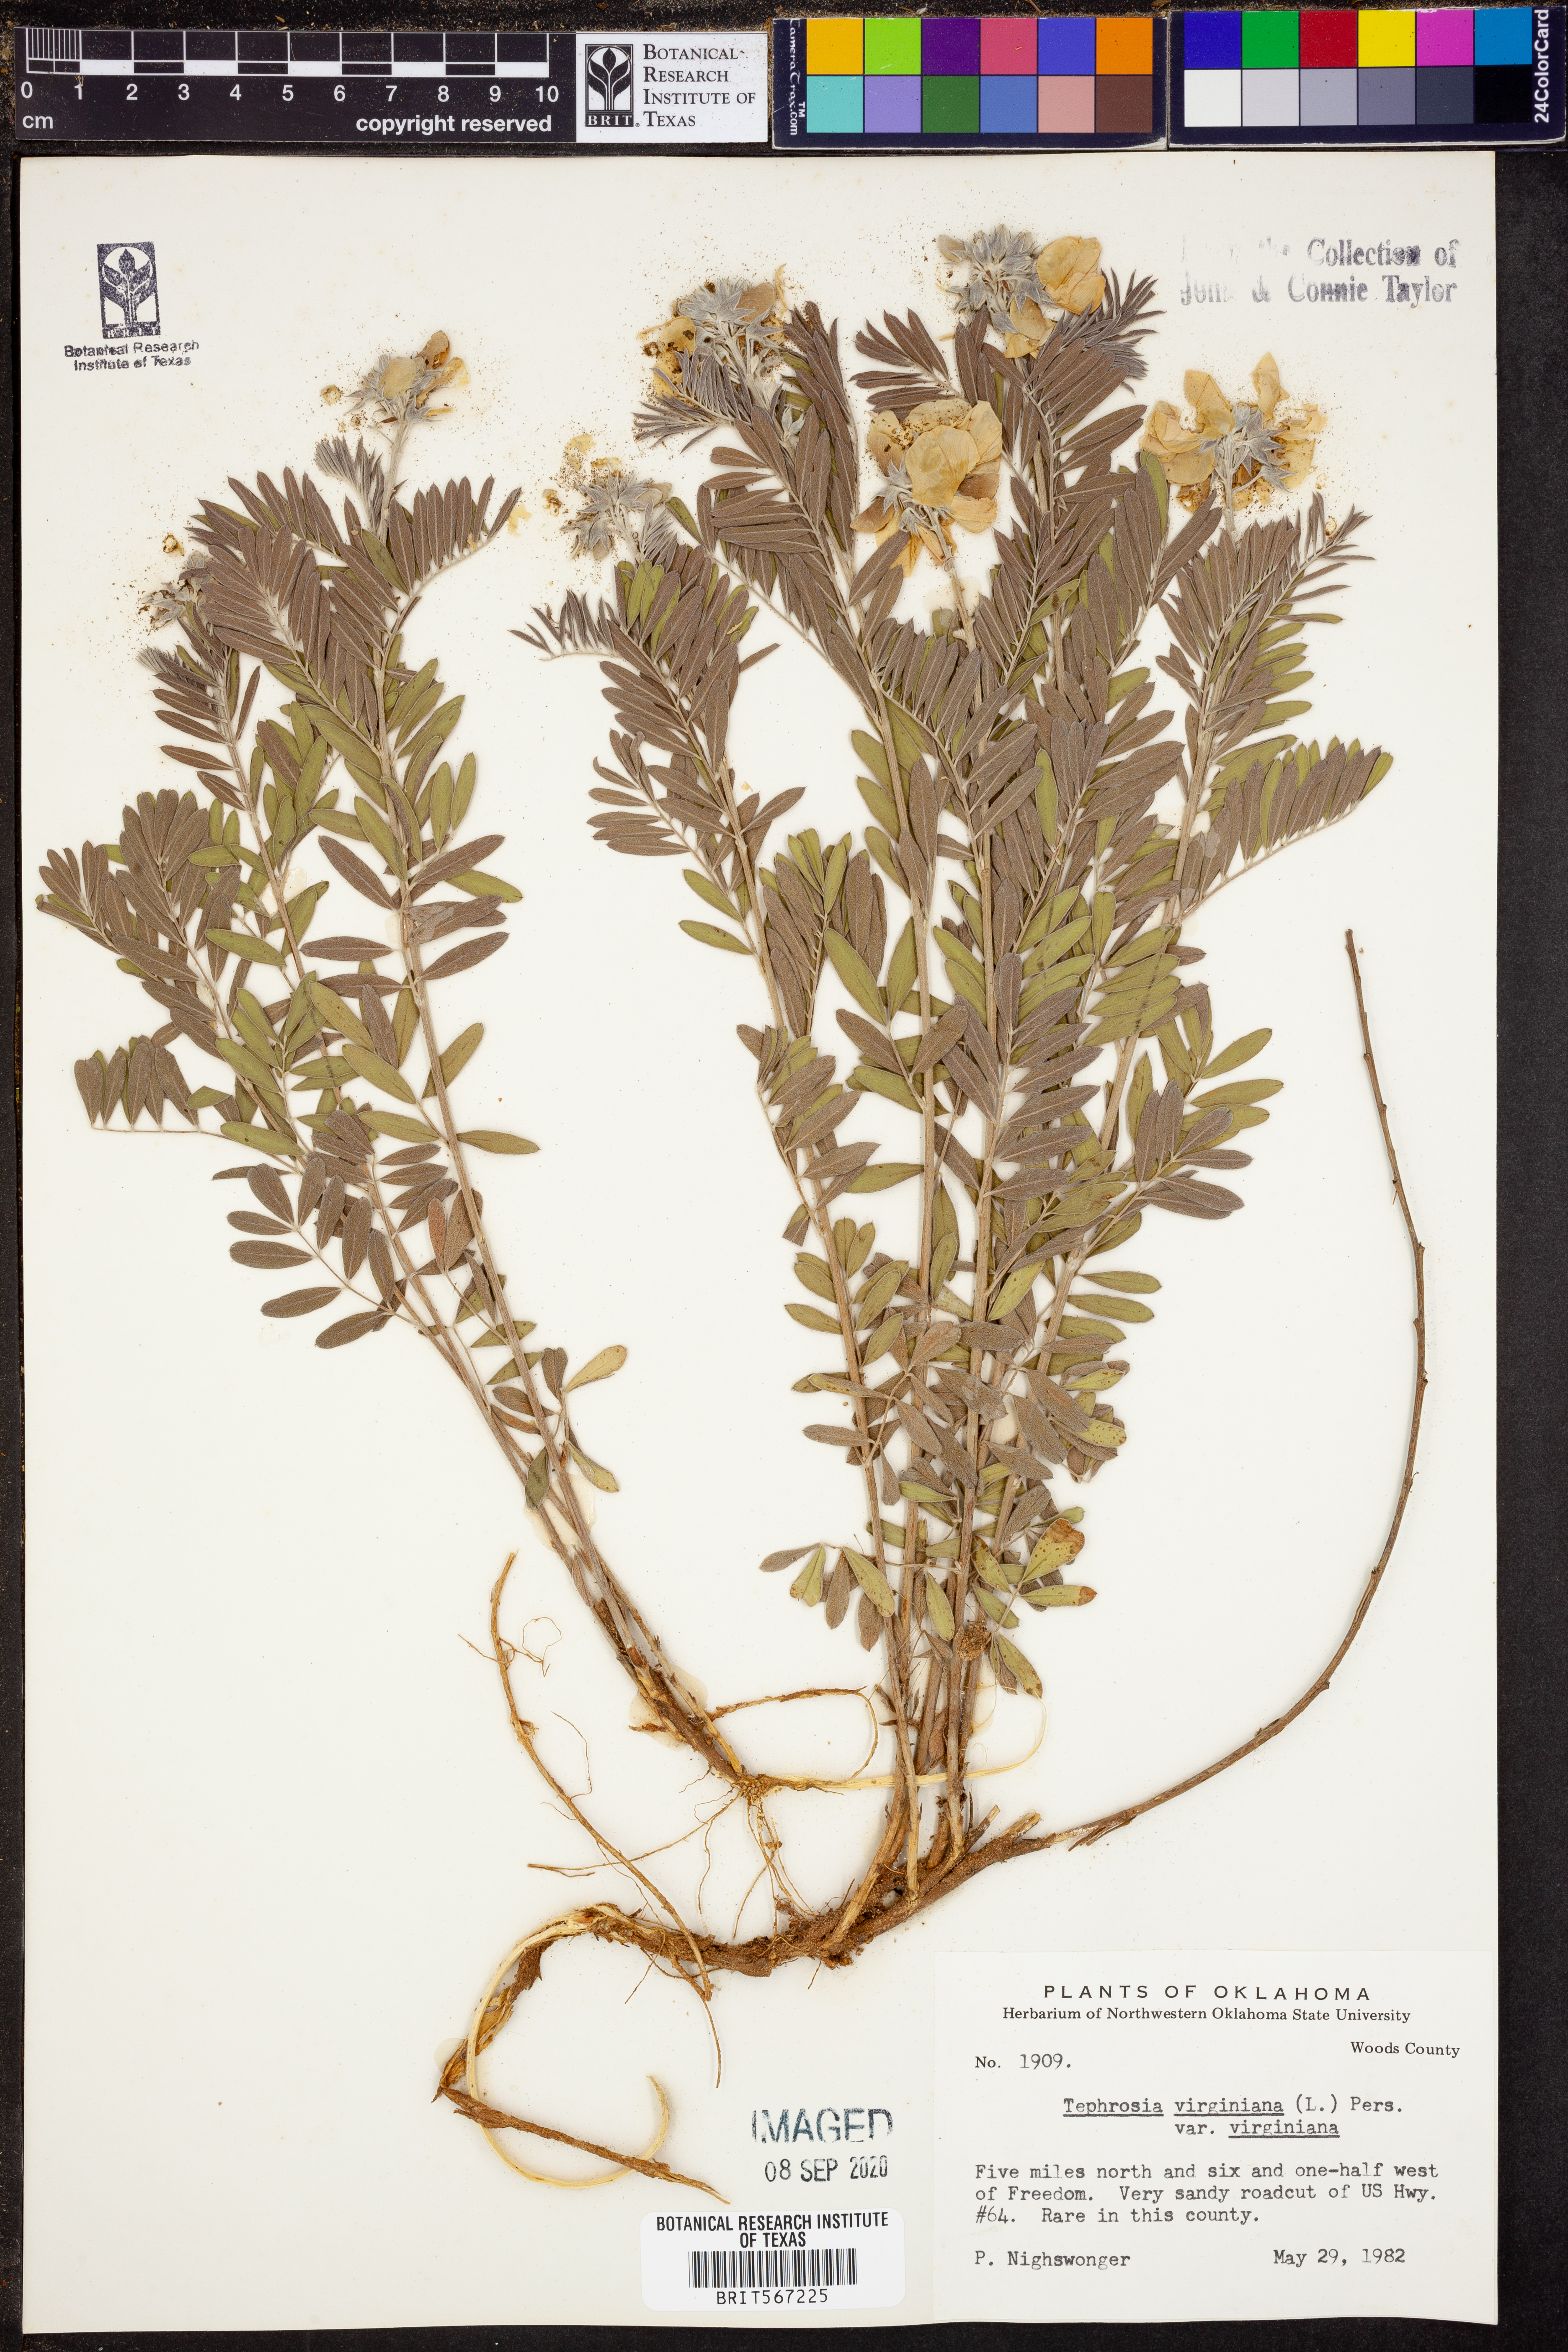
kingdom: Plantae
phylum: Tracheophyta
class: Magnoliopsida
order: Fabales
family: Fabaceae
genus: Tephrosia
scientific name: Tephrosia virginiana
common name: Rabbit-pea
